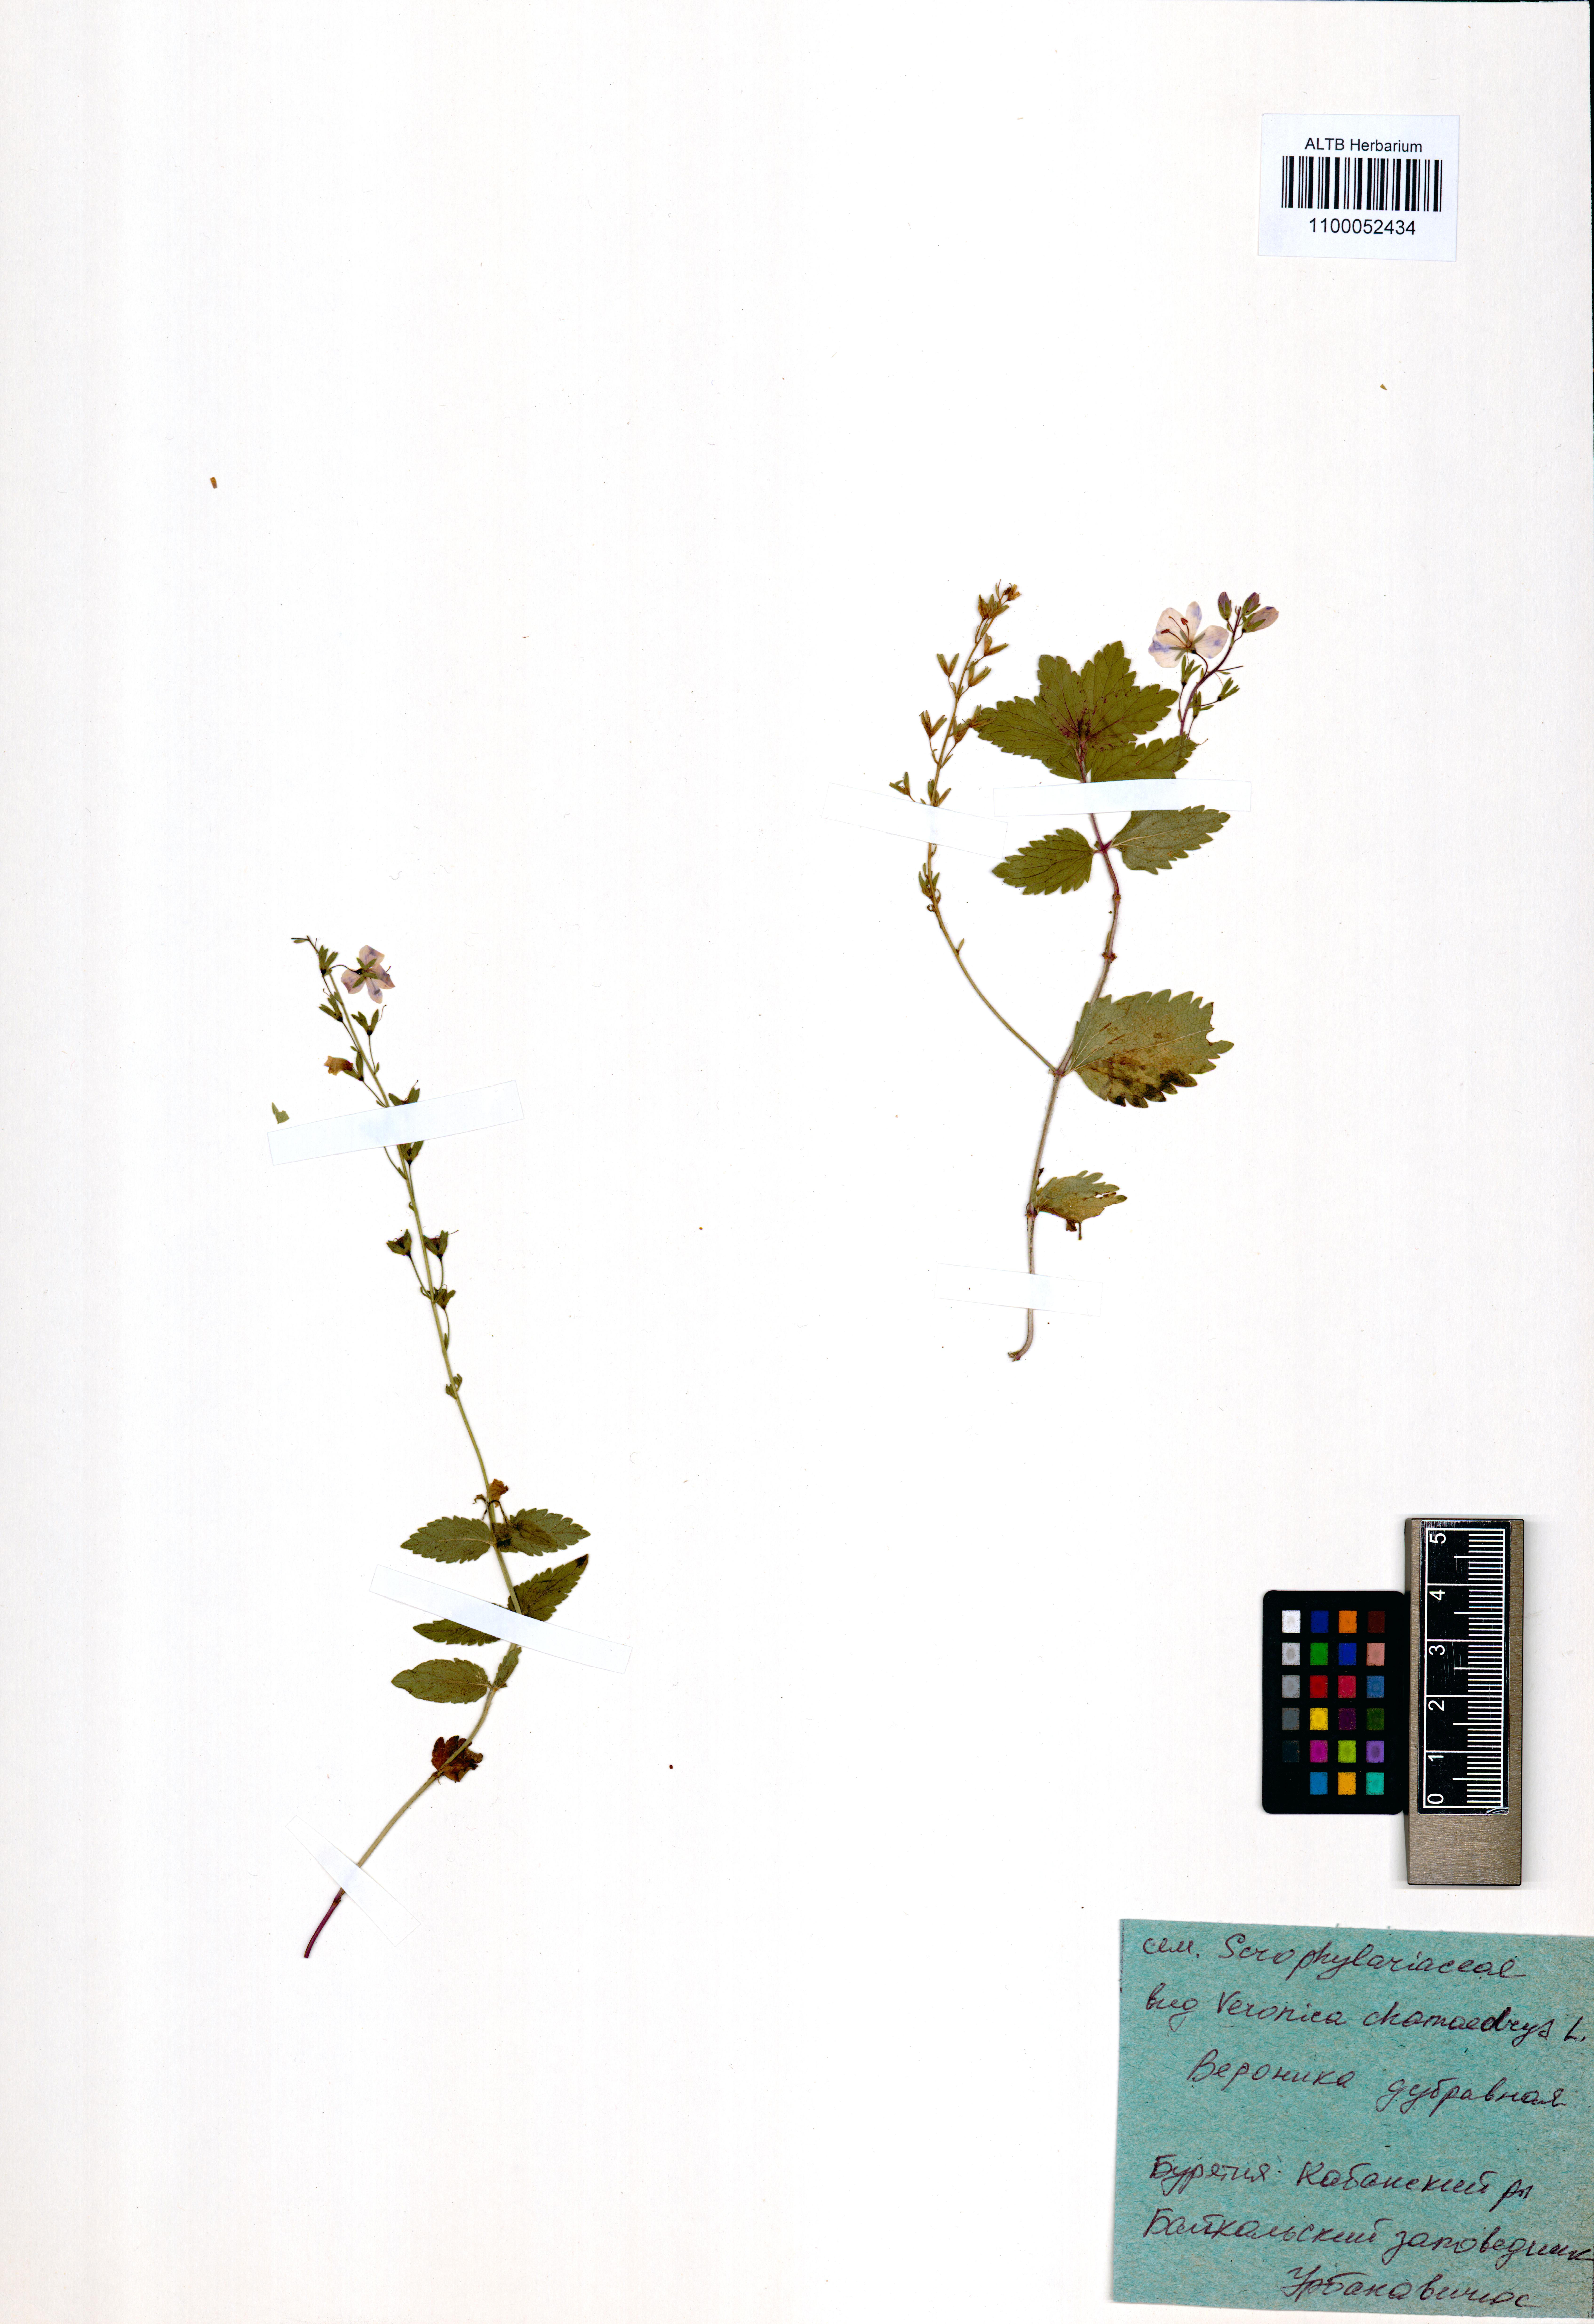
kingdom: Plantae
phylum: Tracheophyta
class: Magnoliopsida
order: Lamiales
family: Plantaginaceae
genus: Veronica
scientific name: Veronica chamaedrys
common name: Germander speedwell
